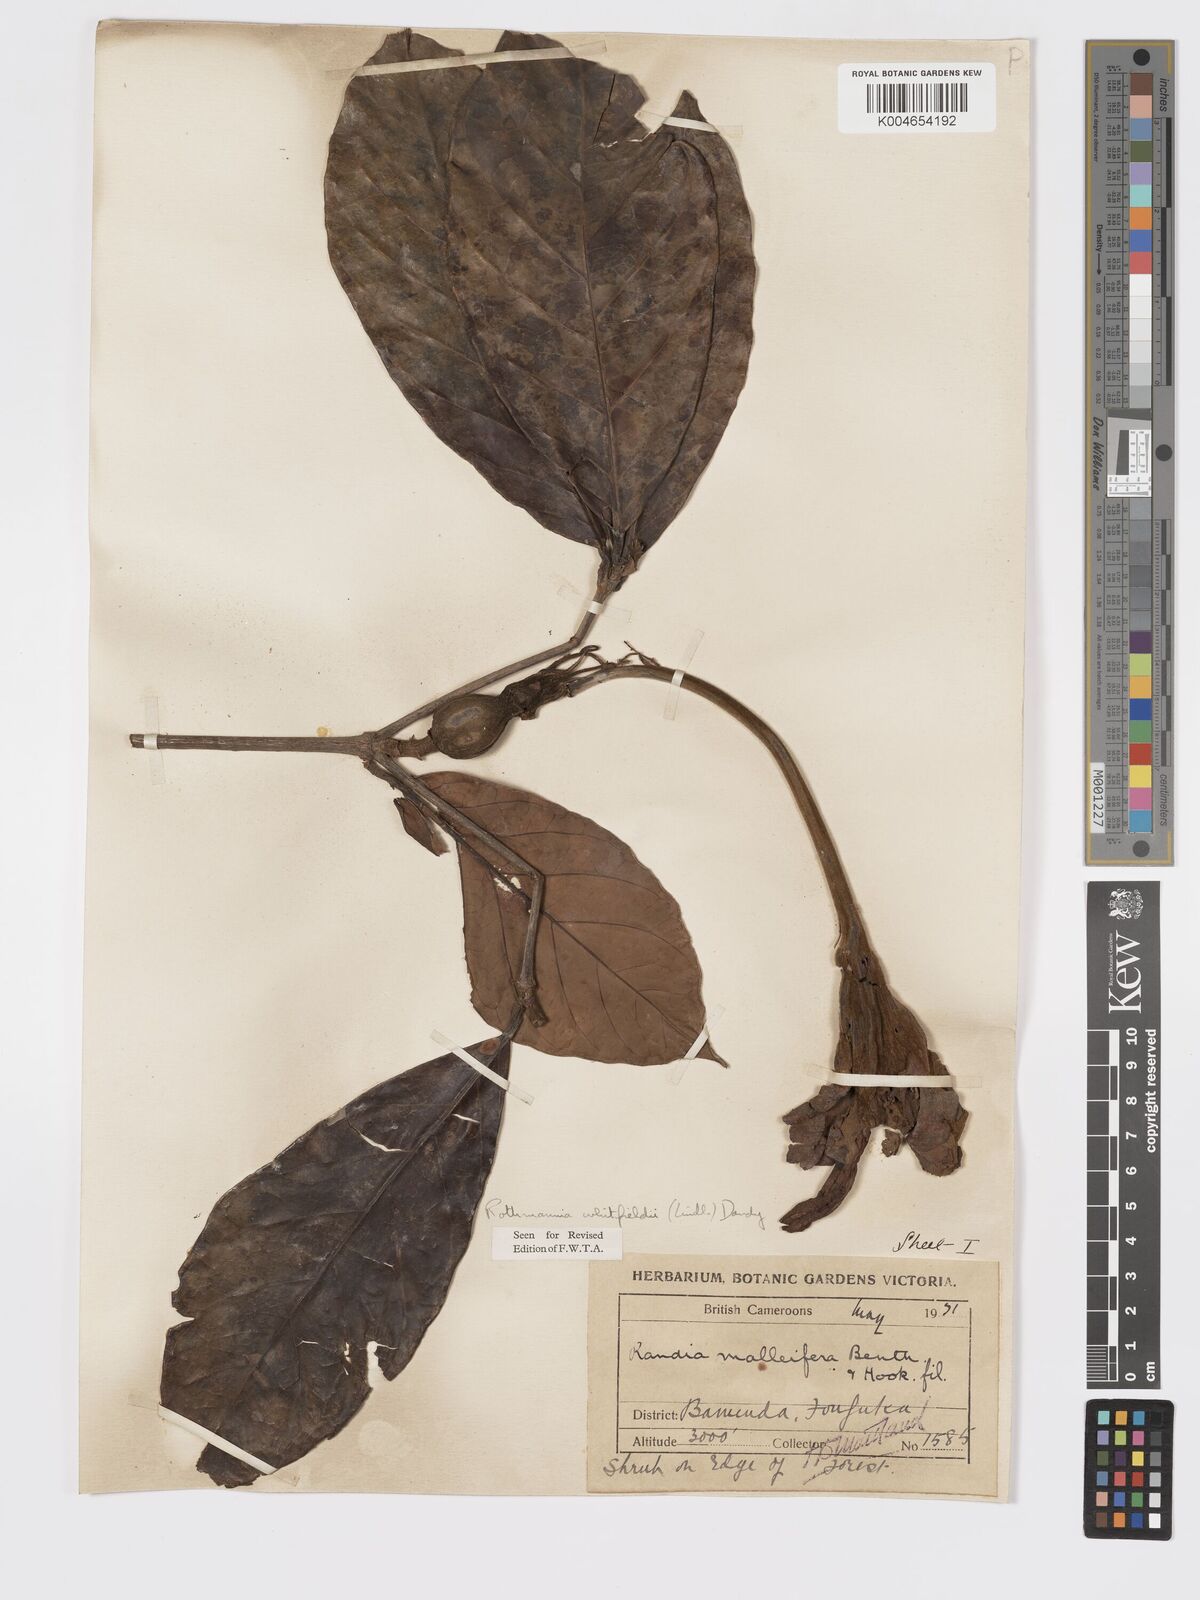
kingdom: Plantae
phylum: Tracheophyta
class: Magnoliopsida
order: Gentianales
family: Rubiaceae
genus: Rothmannia
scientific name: Rothmannia whitfieldii
